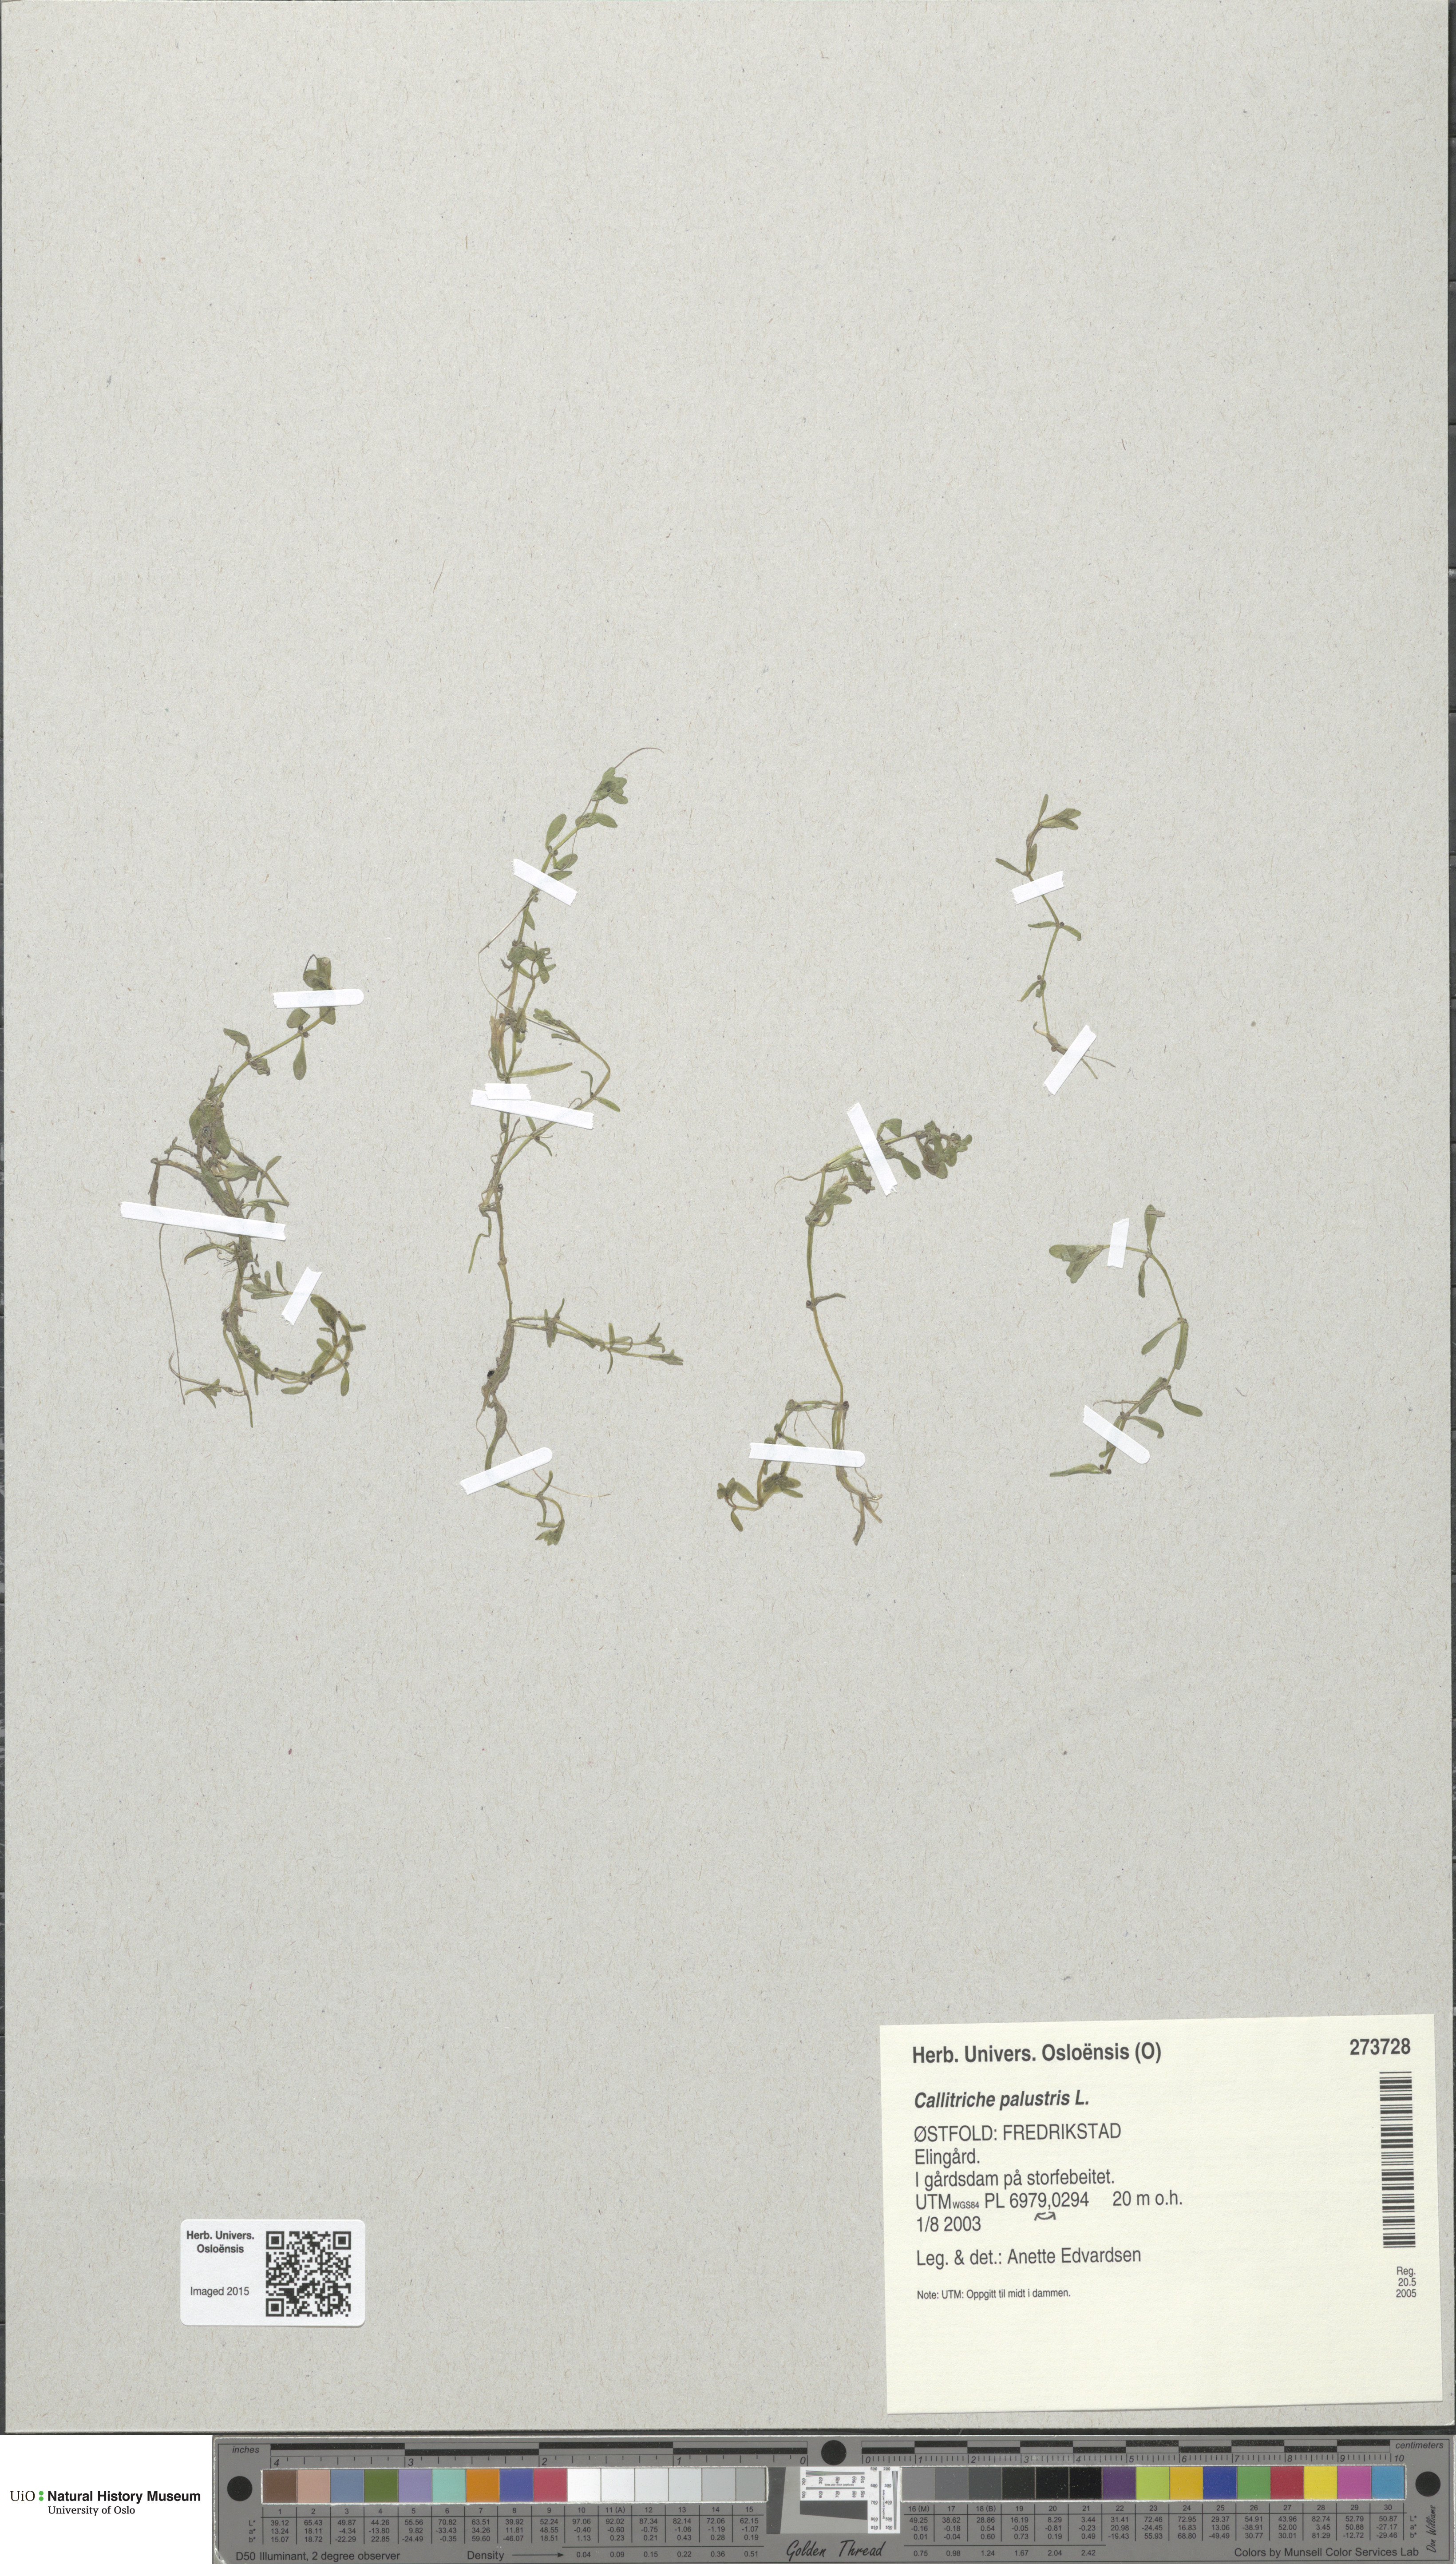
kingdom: Plantae
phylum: Tracheophyta
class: Magnoliopsida
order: Lamiales
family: Plantaginaceae
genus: Callitriche
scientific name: Callitriche palustris
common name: Spring water-starwort
